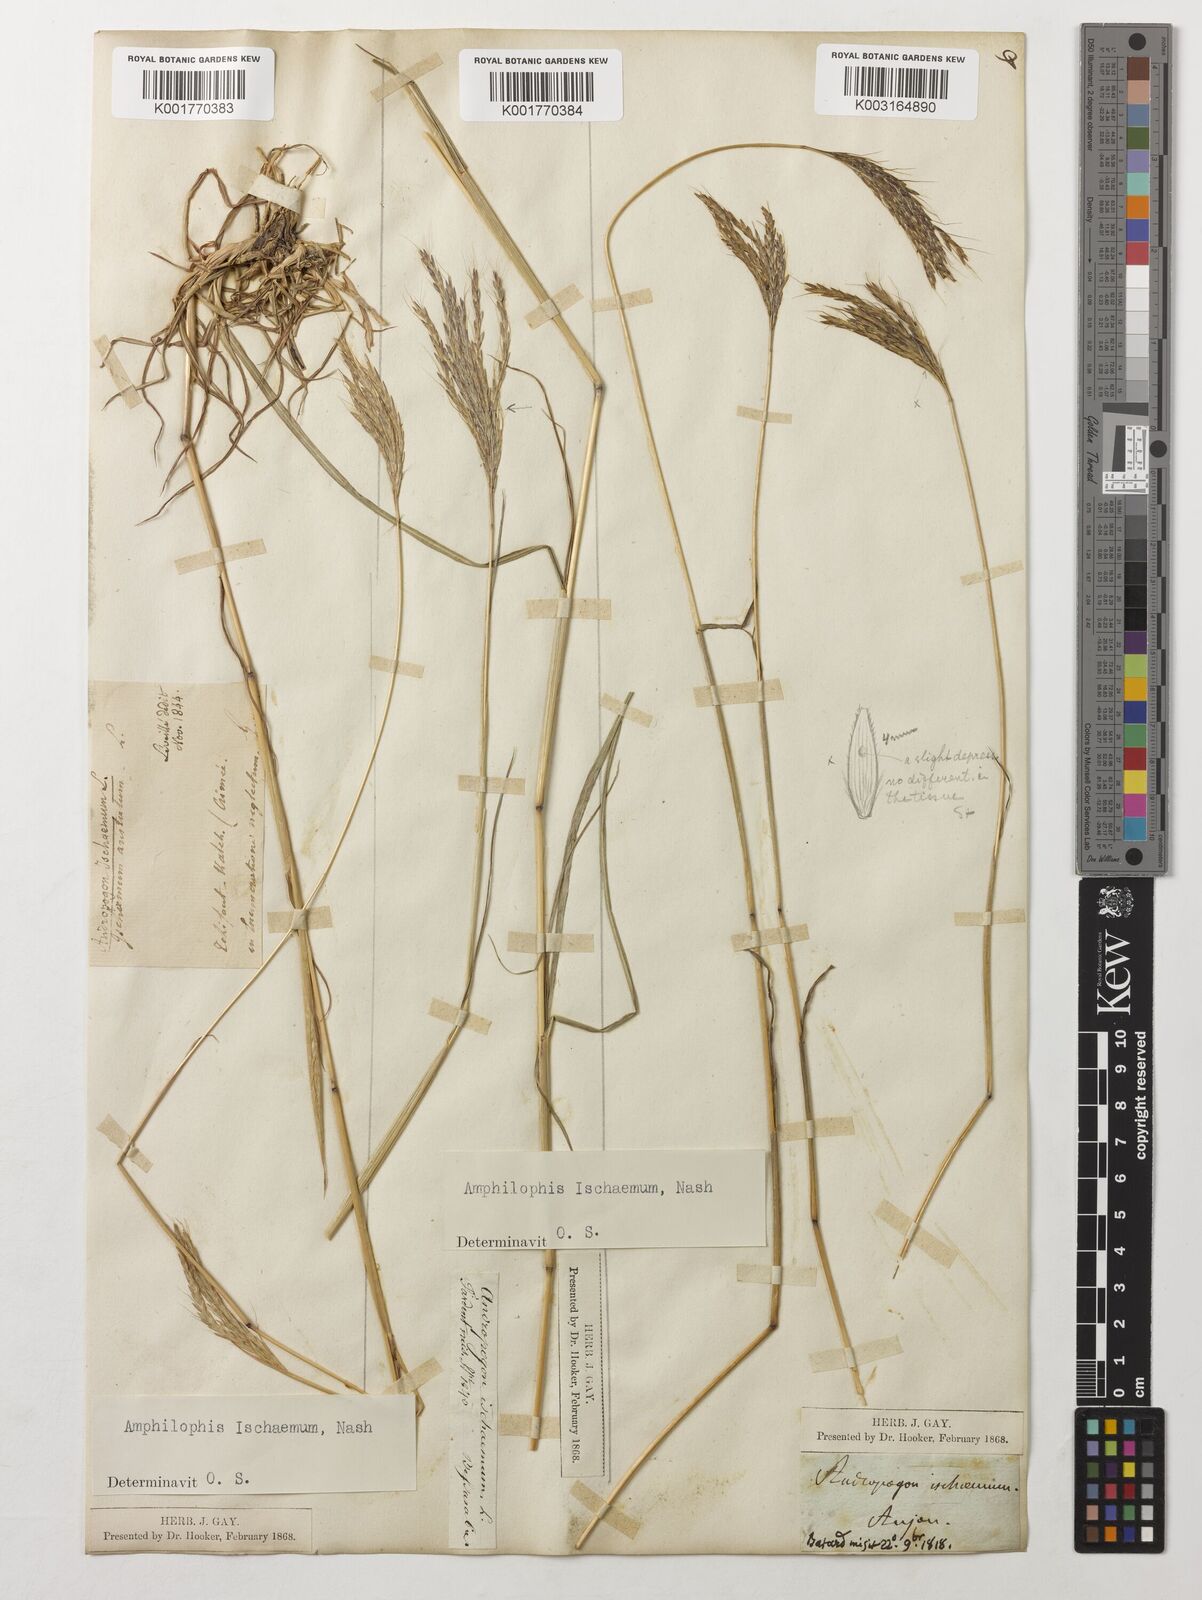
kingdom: Plantae
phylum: Tracheophyta
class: Liliopsida
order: Poales
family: Poaceae
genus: Bothriochloa
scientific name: Bothriochloa ischaemum
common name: Yellow bluestem
